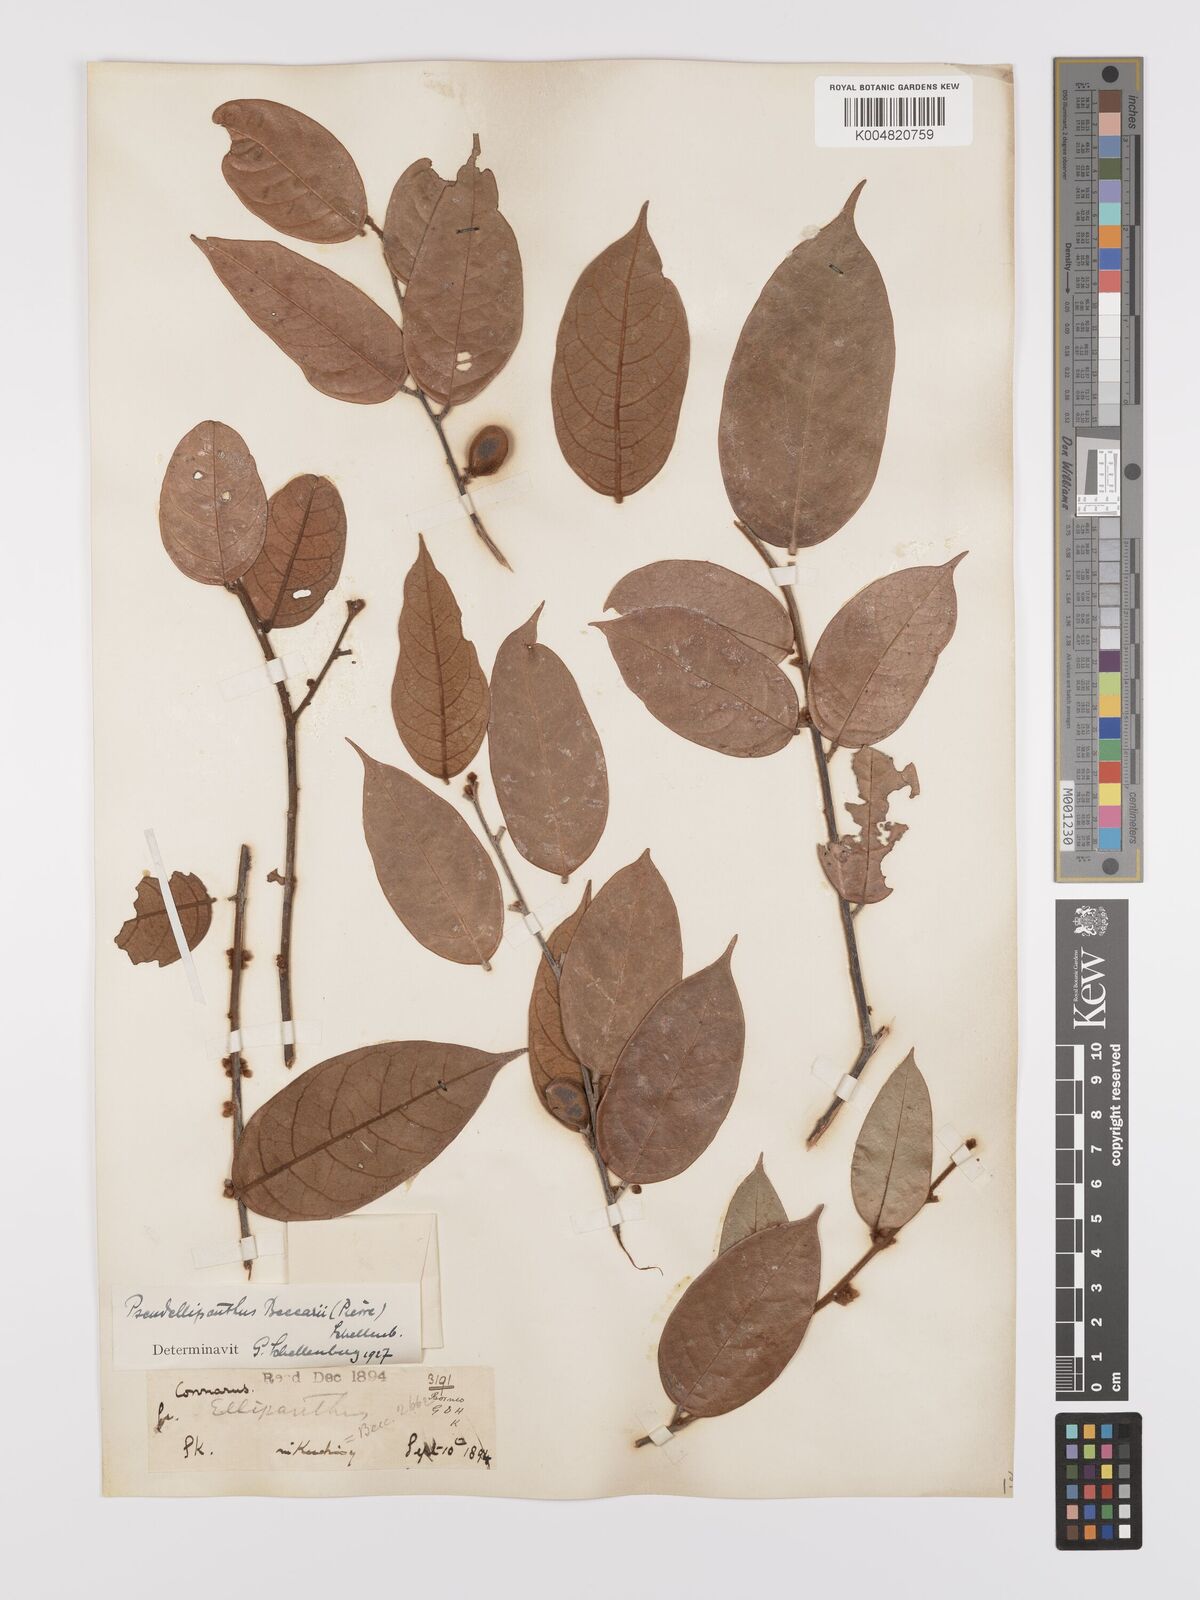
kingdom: Plantae
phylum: Tracheophyta
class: Magnoliopsida
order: Oxalidales
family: Connaraceae
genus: Ellipanthus
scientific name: Ellipanthus beccarii
